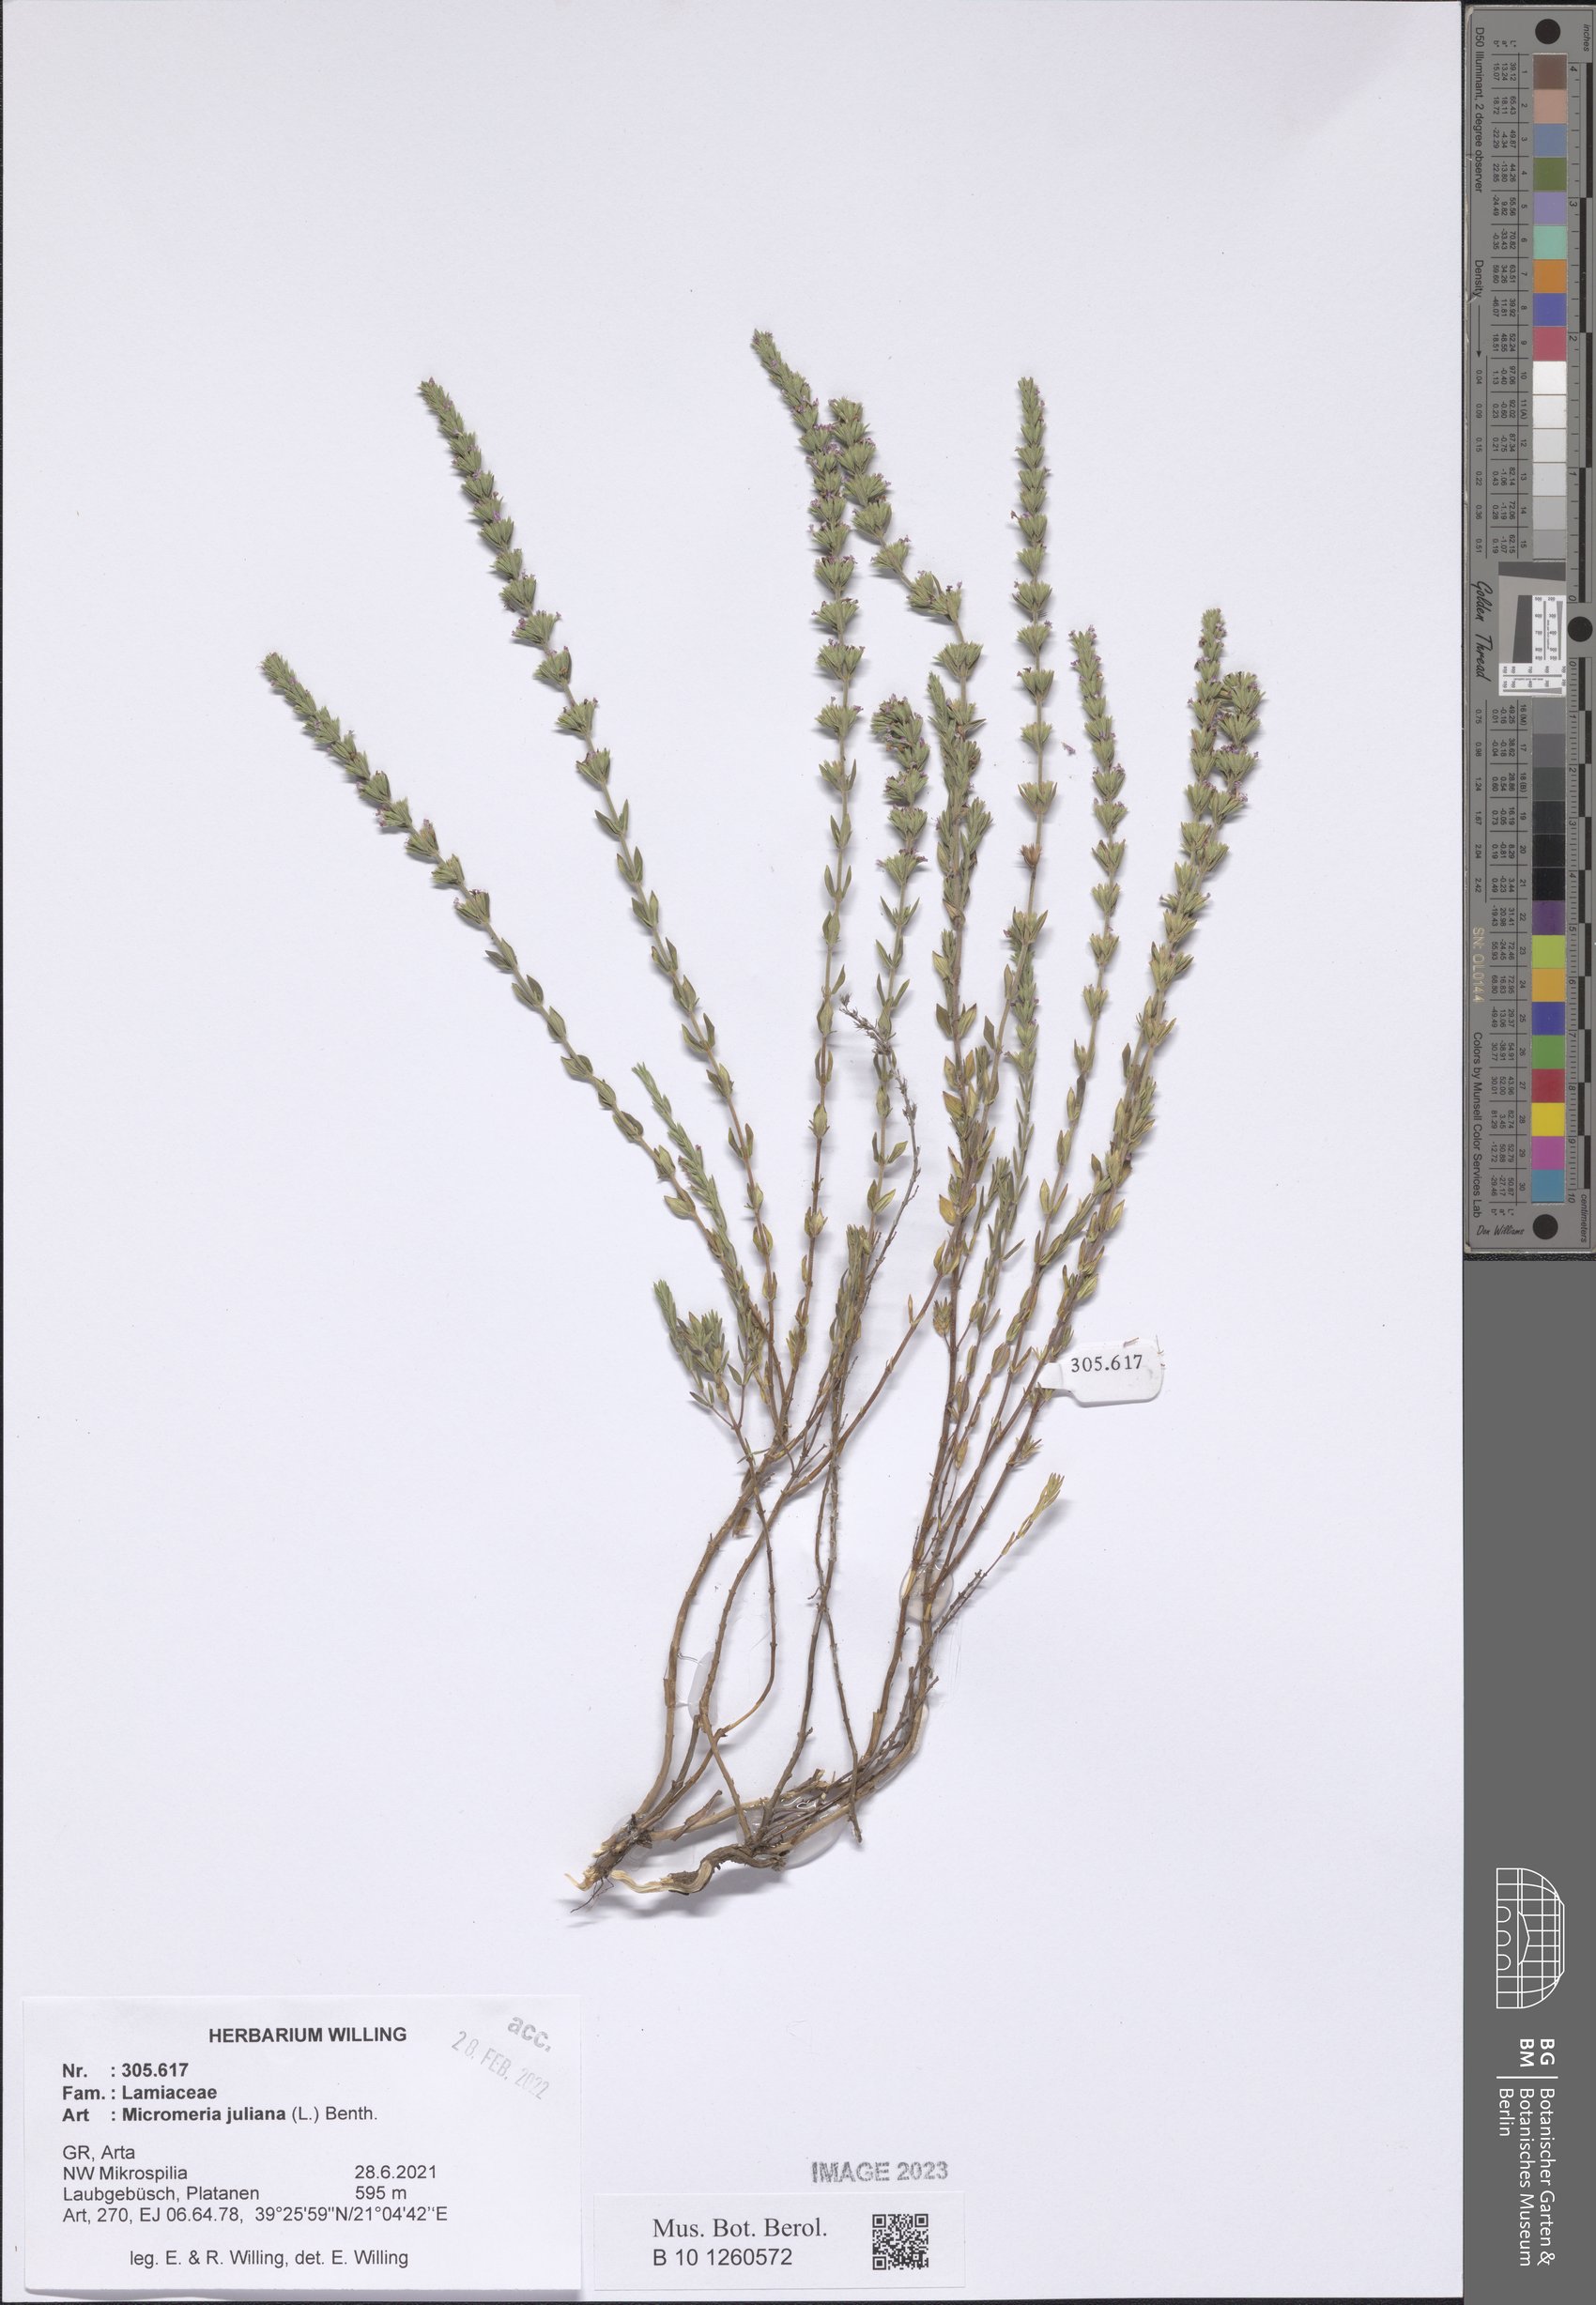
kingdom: Plantae
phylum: Tracheophyta
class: Magnoliopsida
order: Lamiales
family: Lamiaceae
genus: Micromeria
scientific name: Micromeria juliana
